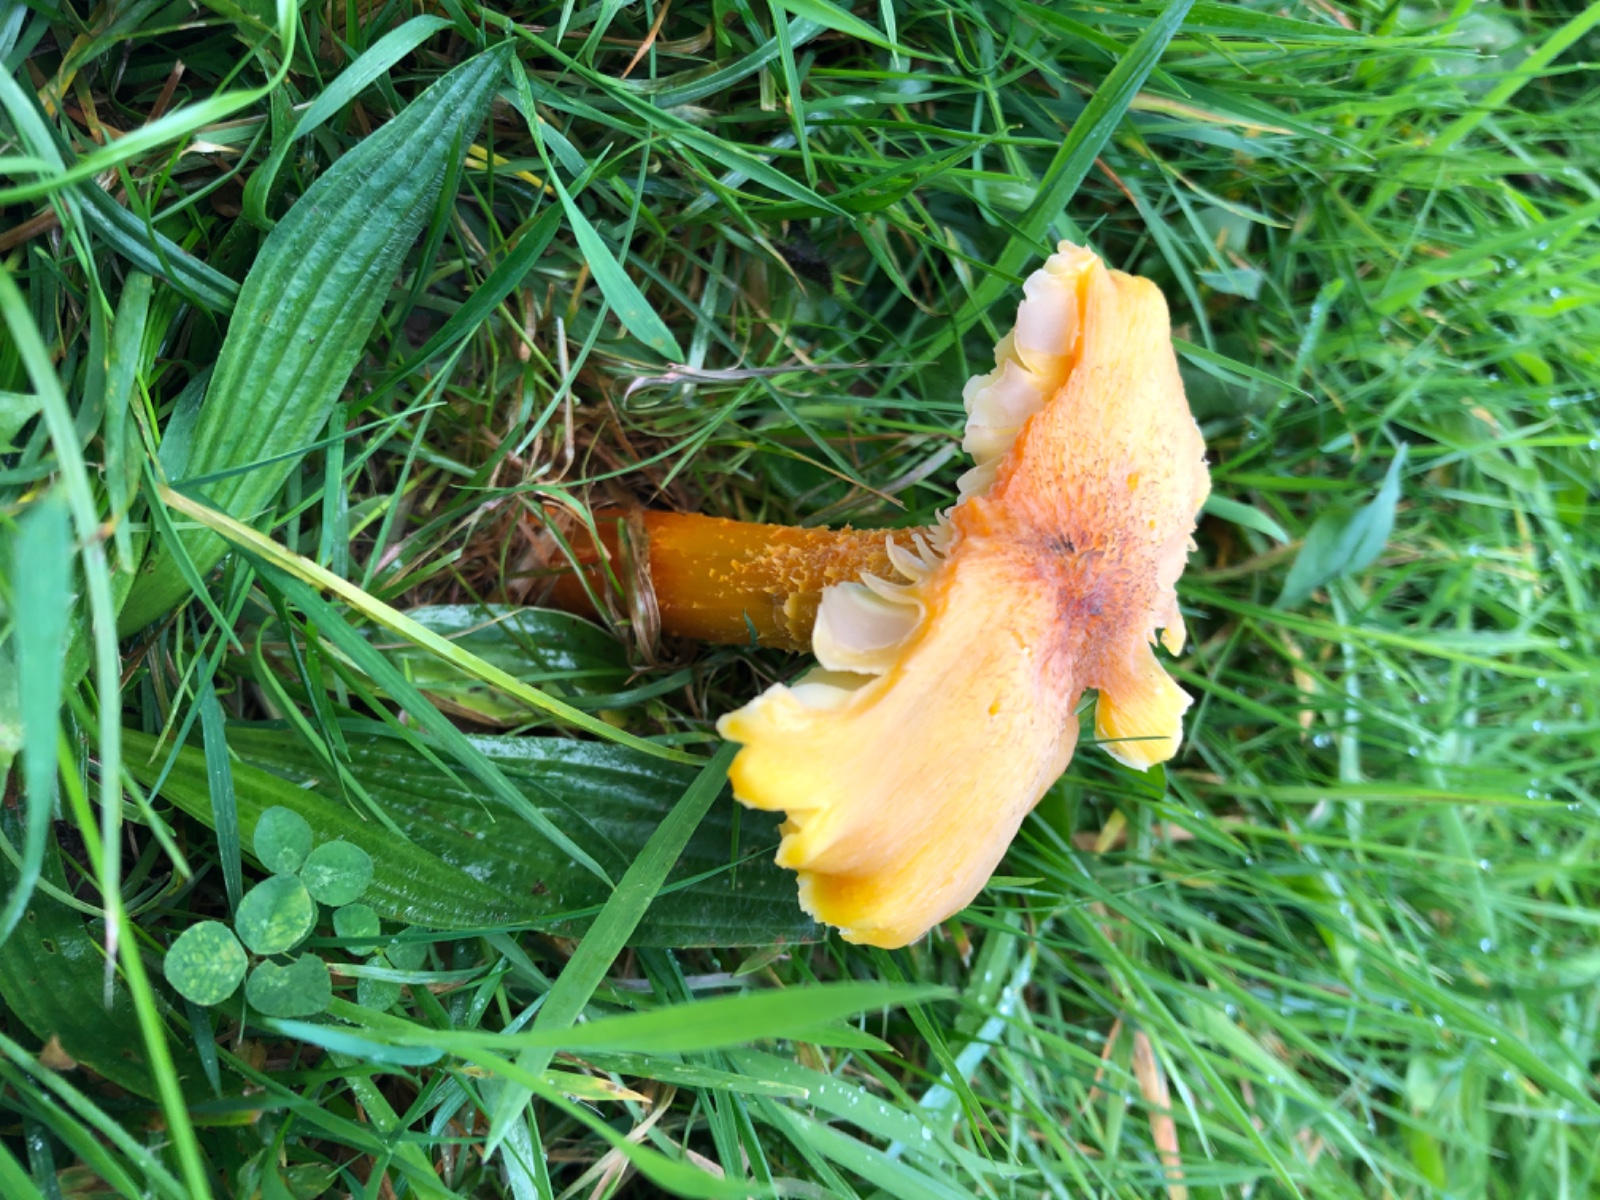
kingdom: Fungi
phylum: Basidiomycota
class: Agaricomycetes
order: Agaricales
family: Hygrophoraceae
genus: Hygrocybe
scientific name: Hygrocybe intermedia
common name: trævlet vokshat
